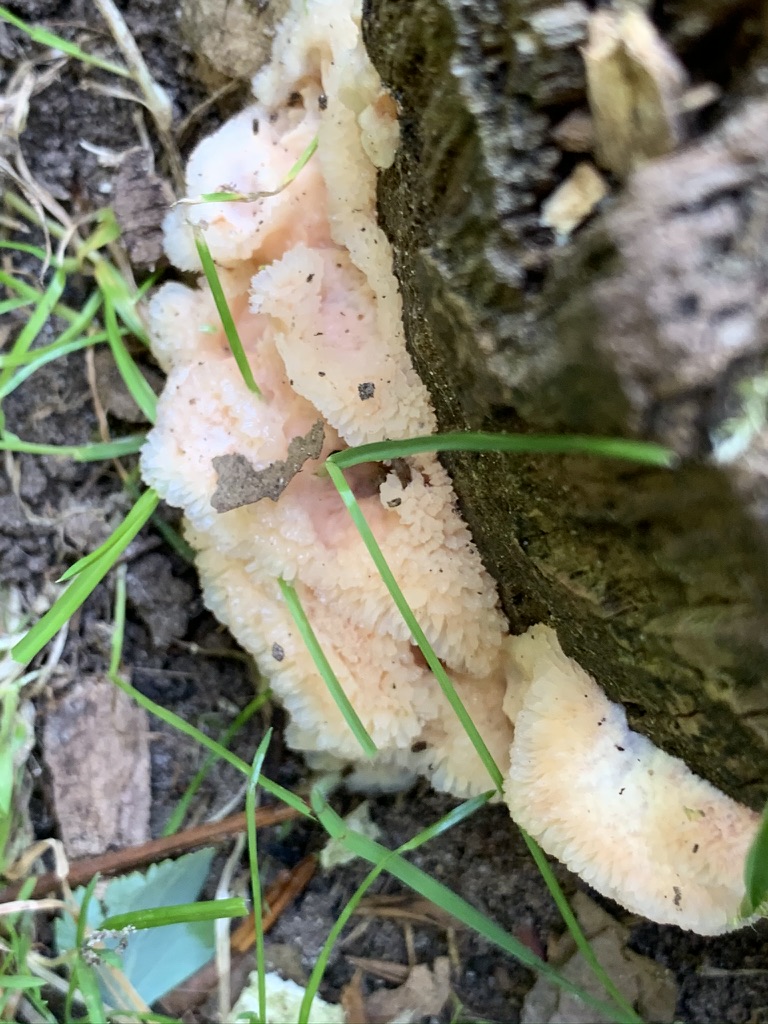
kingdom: Fungi
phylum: Basidiomycota
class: Agaricomycetes
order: Polyporales
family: Meruliaceae
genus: Phlebia
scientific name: Phlebia tremellosa
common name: bævrende åresvamp
